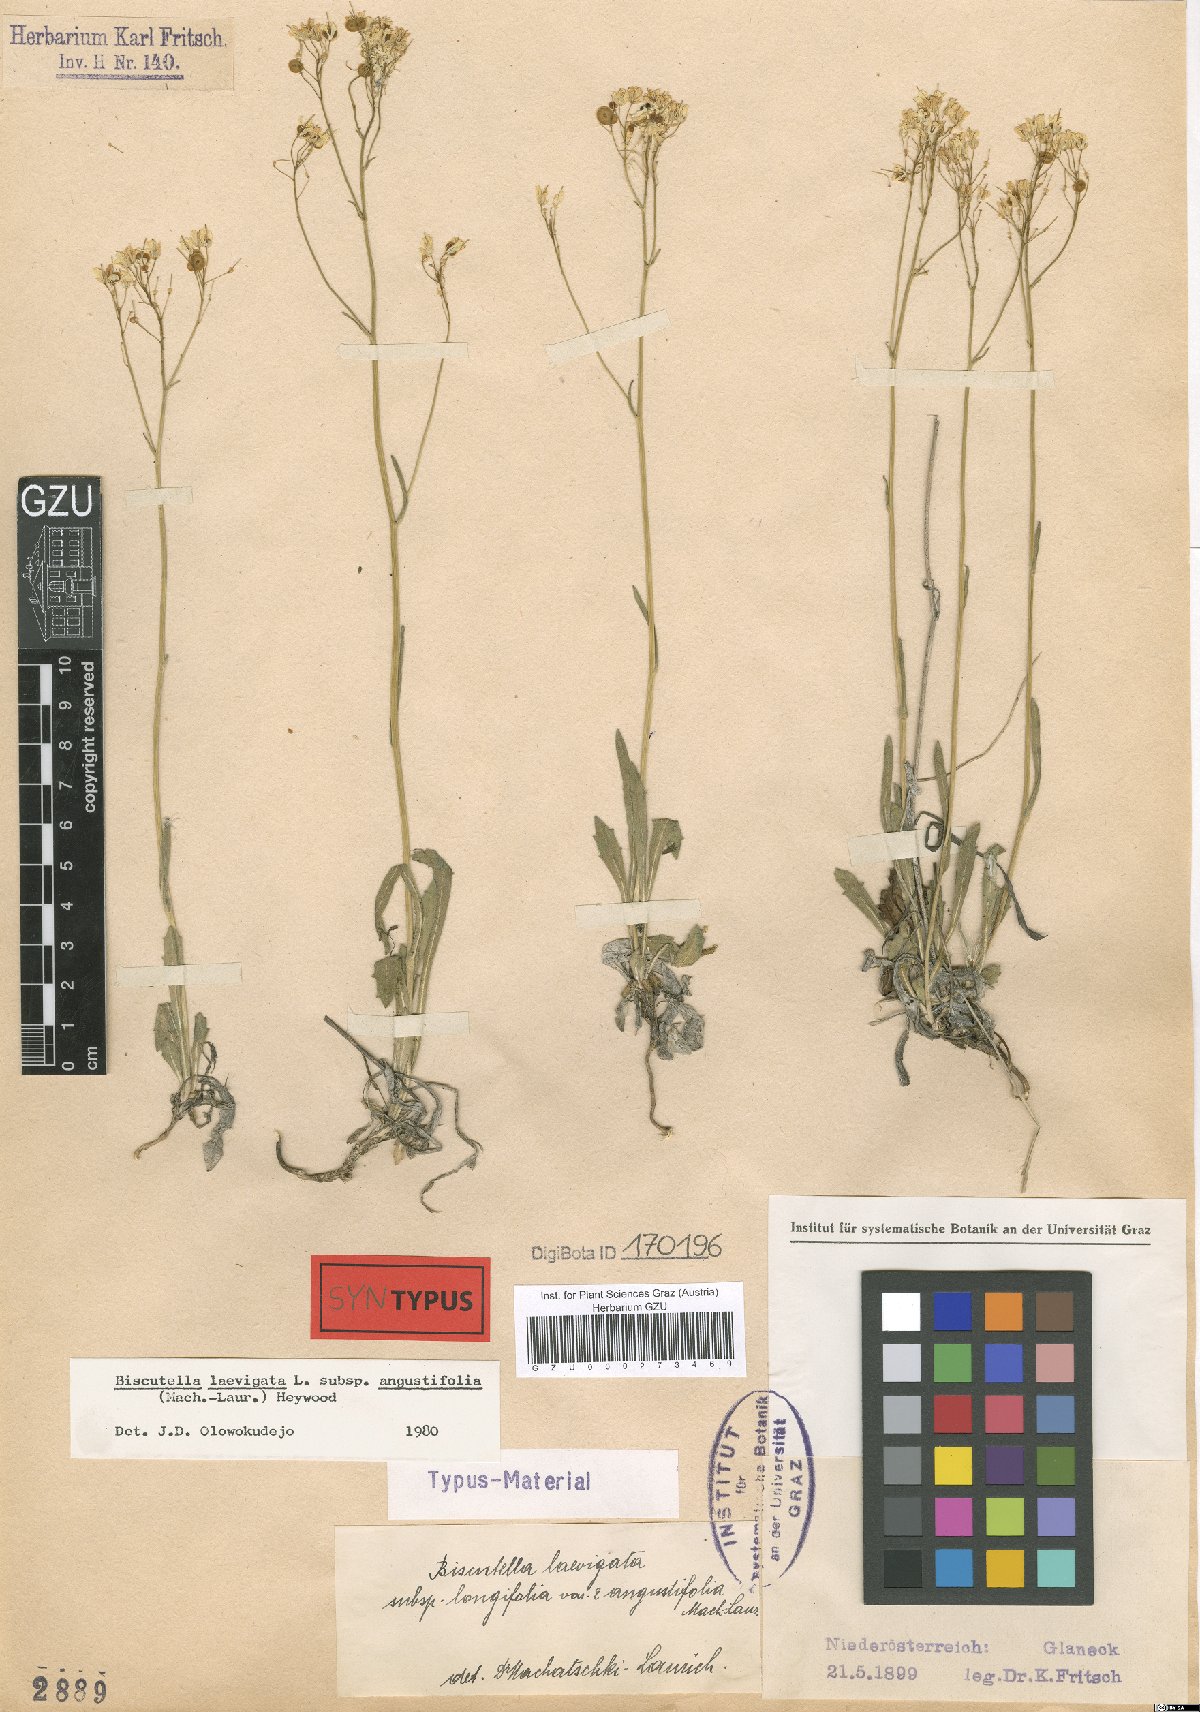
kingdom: Plantae
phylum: Tracheophyta
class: Magnoliopsida
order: Brassicales
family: Brassicaceae
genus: Biscutella
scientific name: Biscutella laevigata
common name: Buckler mustard
